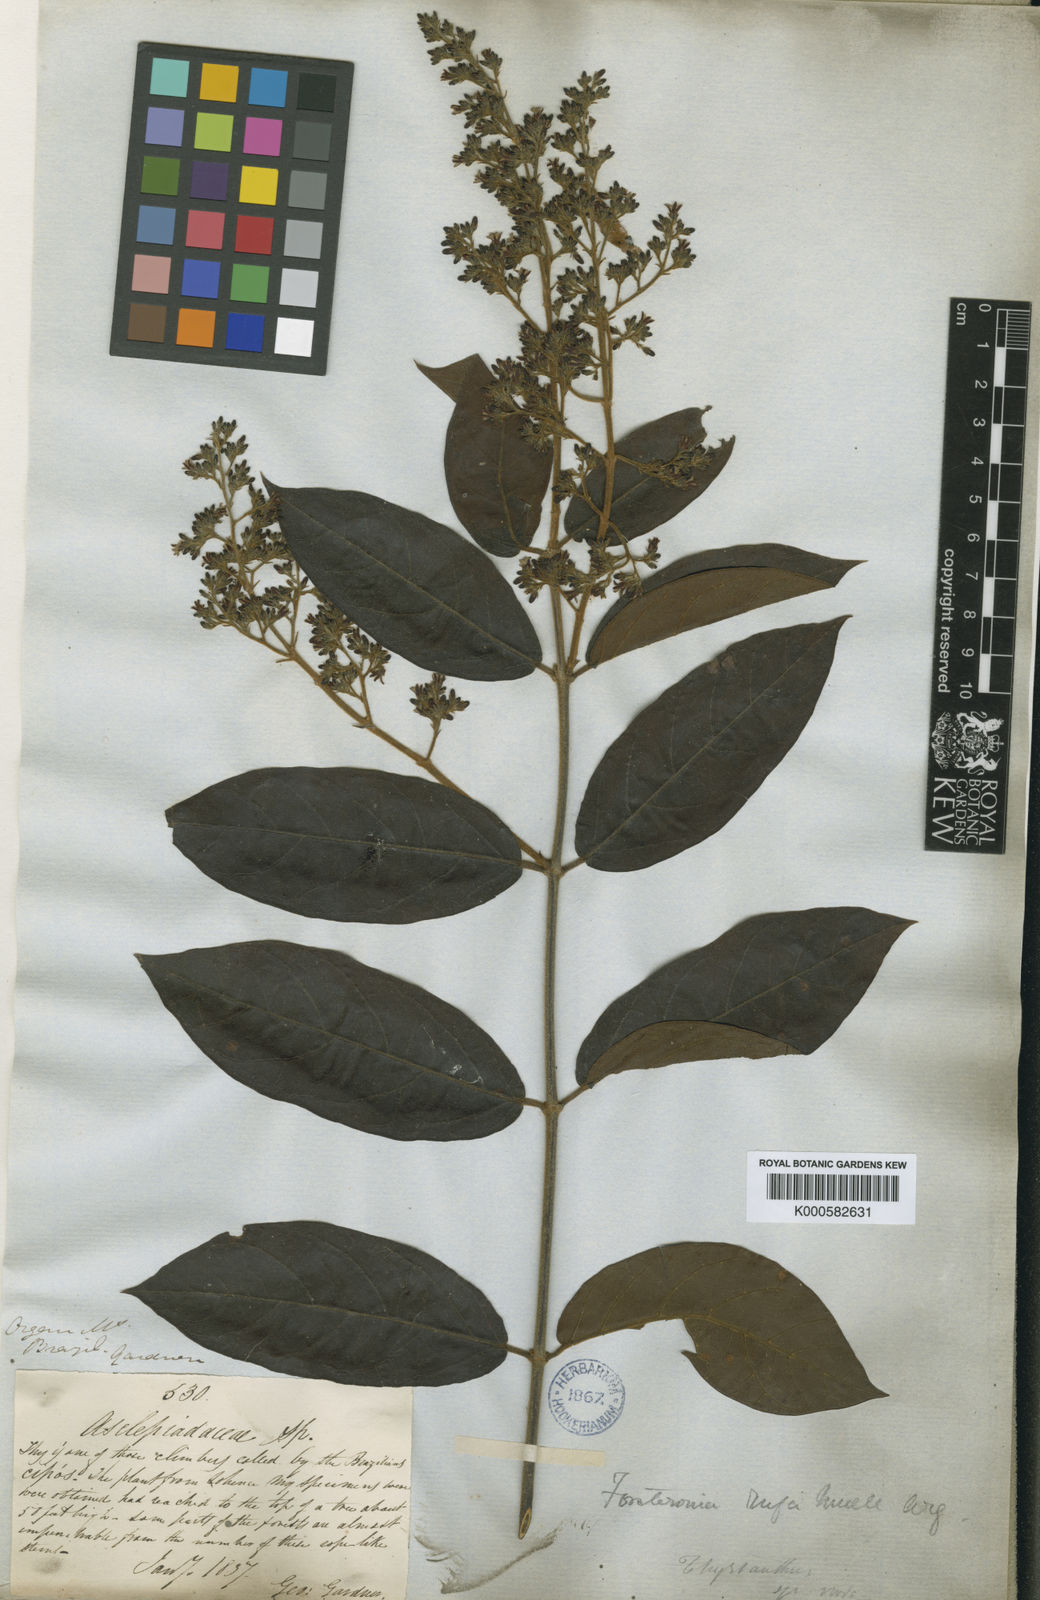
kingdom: Plantae
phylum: Tracheophyta
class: Magnoliopsida
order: Gentianales
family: Apocynaceae
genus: Forsteronia
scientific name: Forsteronia
